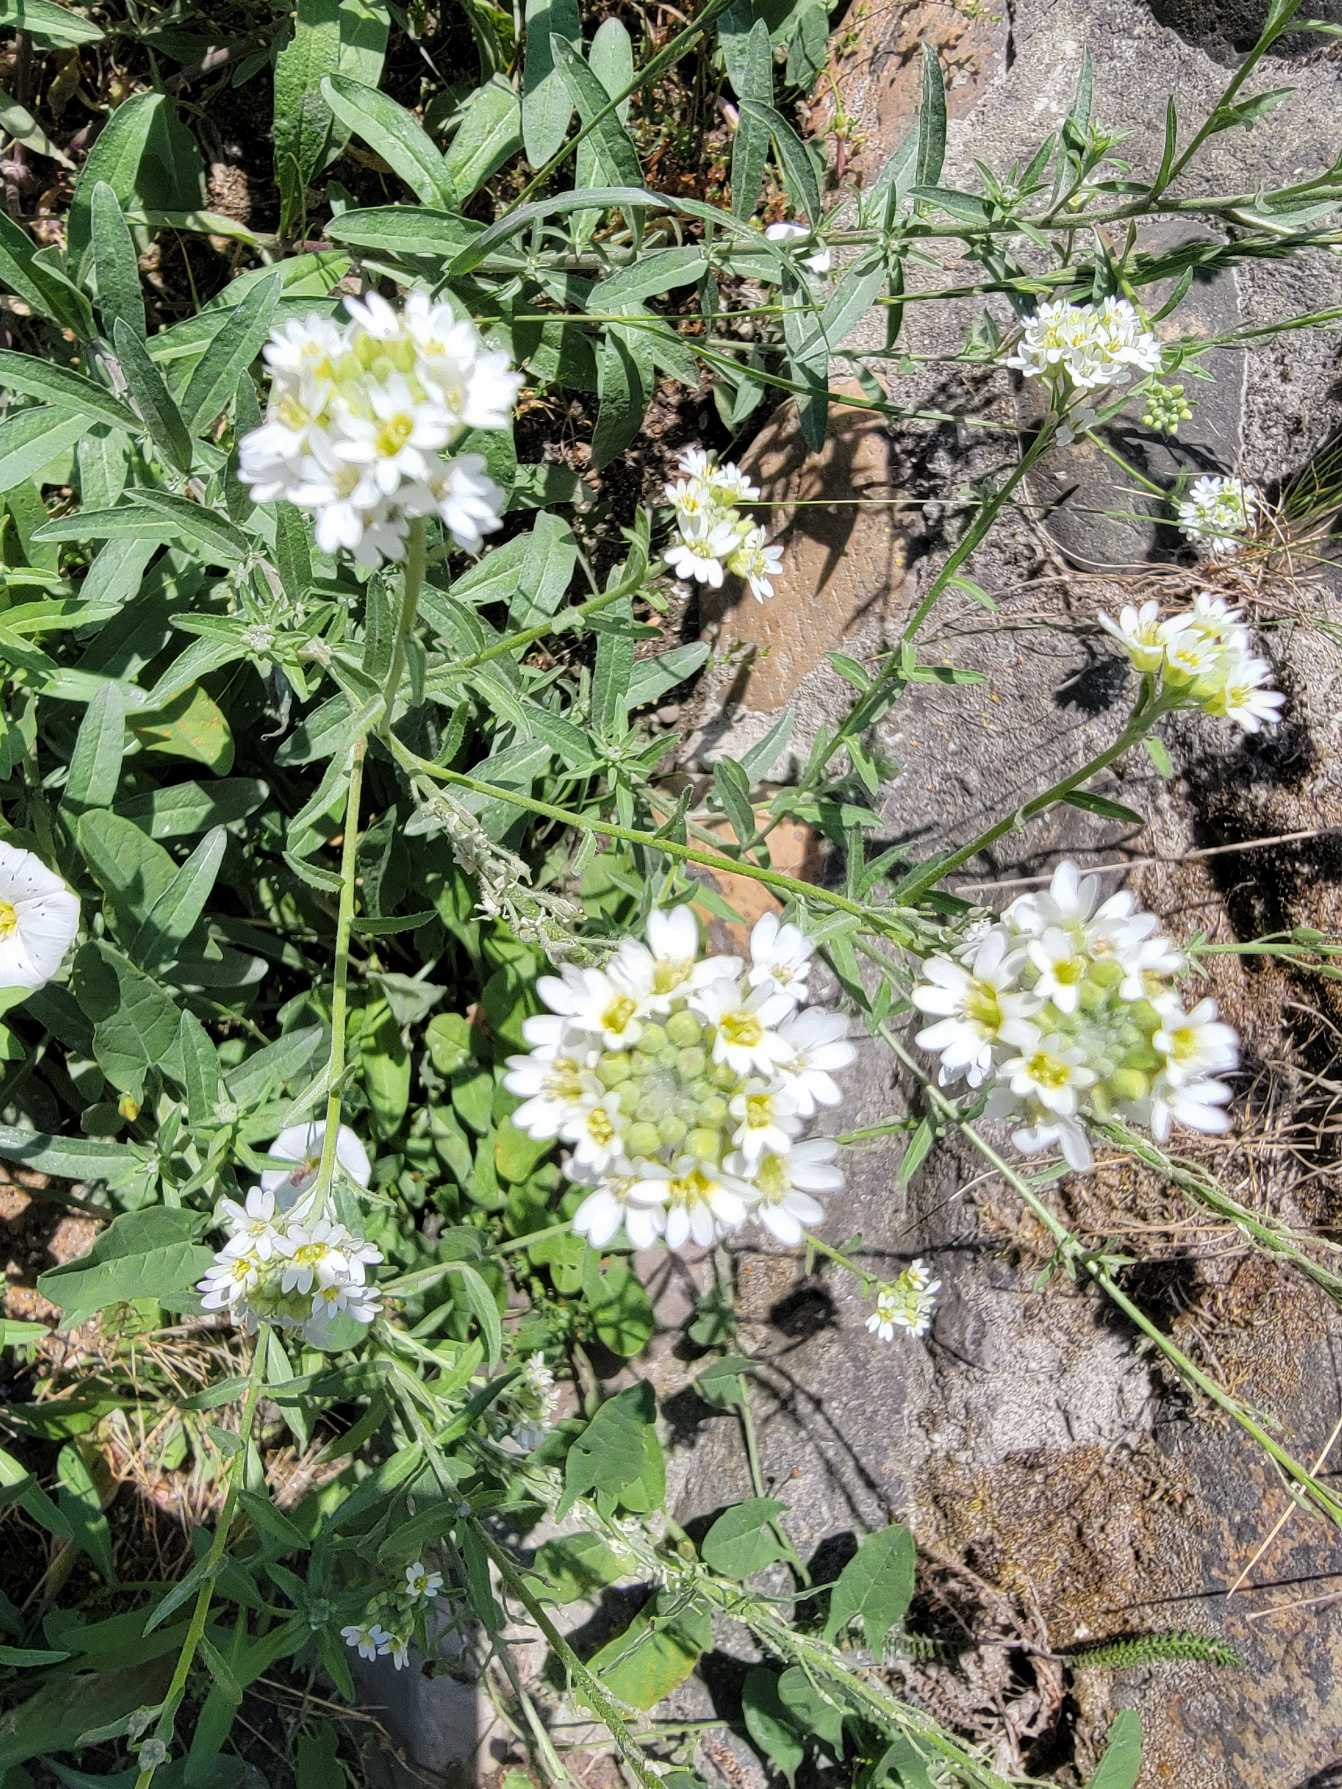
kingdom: Plantae
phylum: Tracheophyta
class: Magnoliopsida
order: Brassicales
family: Brassicaceae
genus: Berteroa
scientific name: Berteroa incana
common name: Kløvplade
